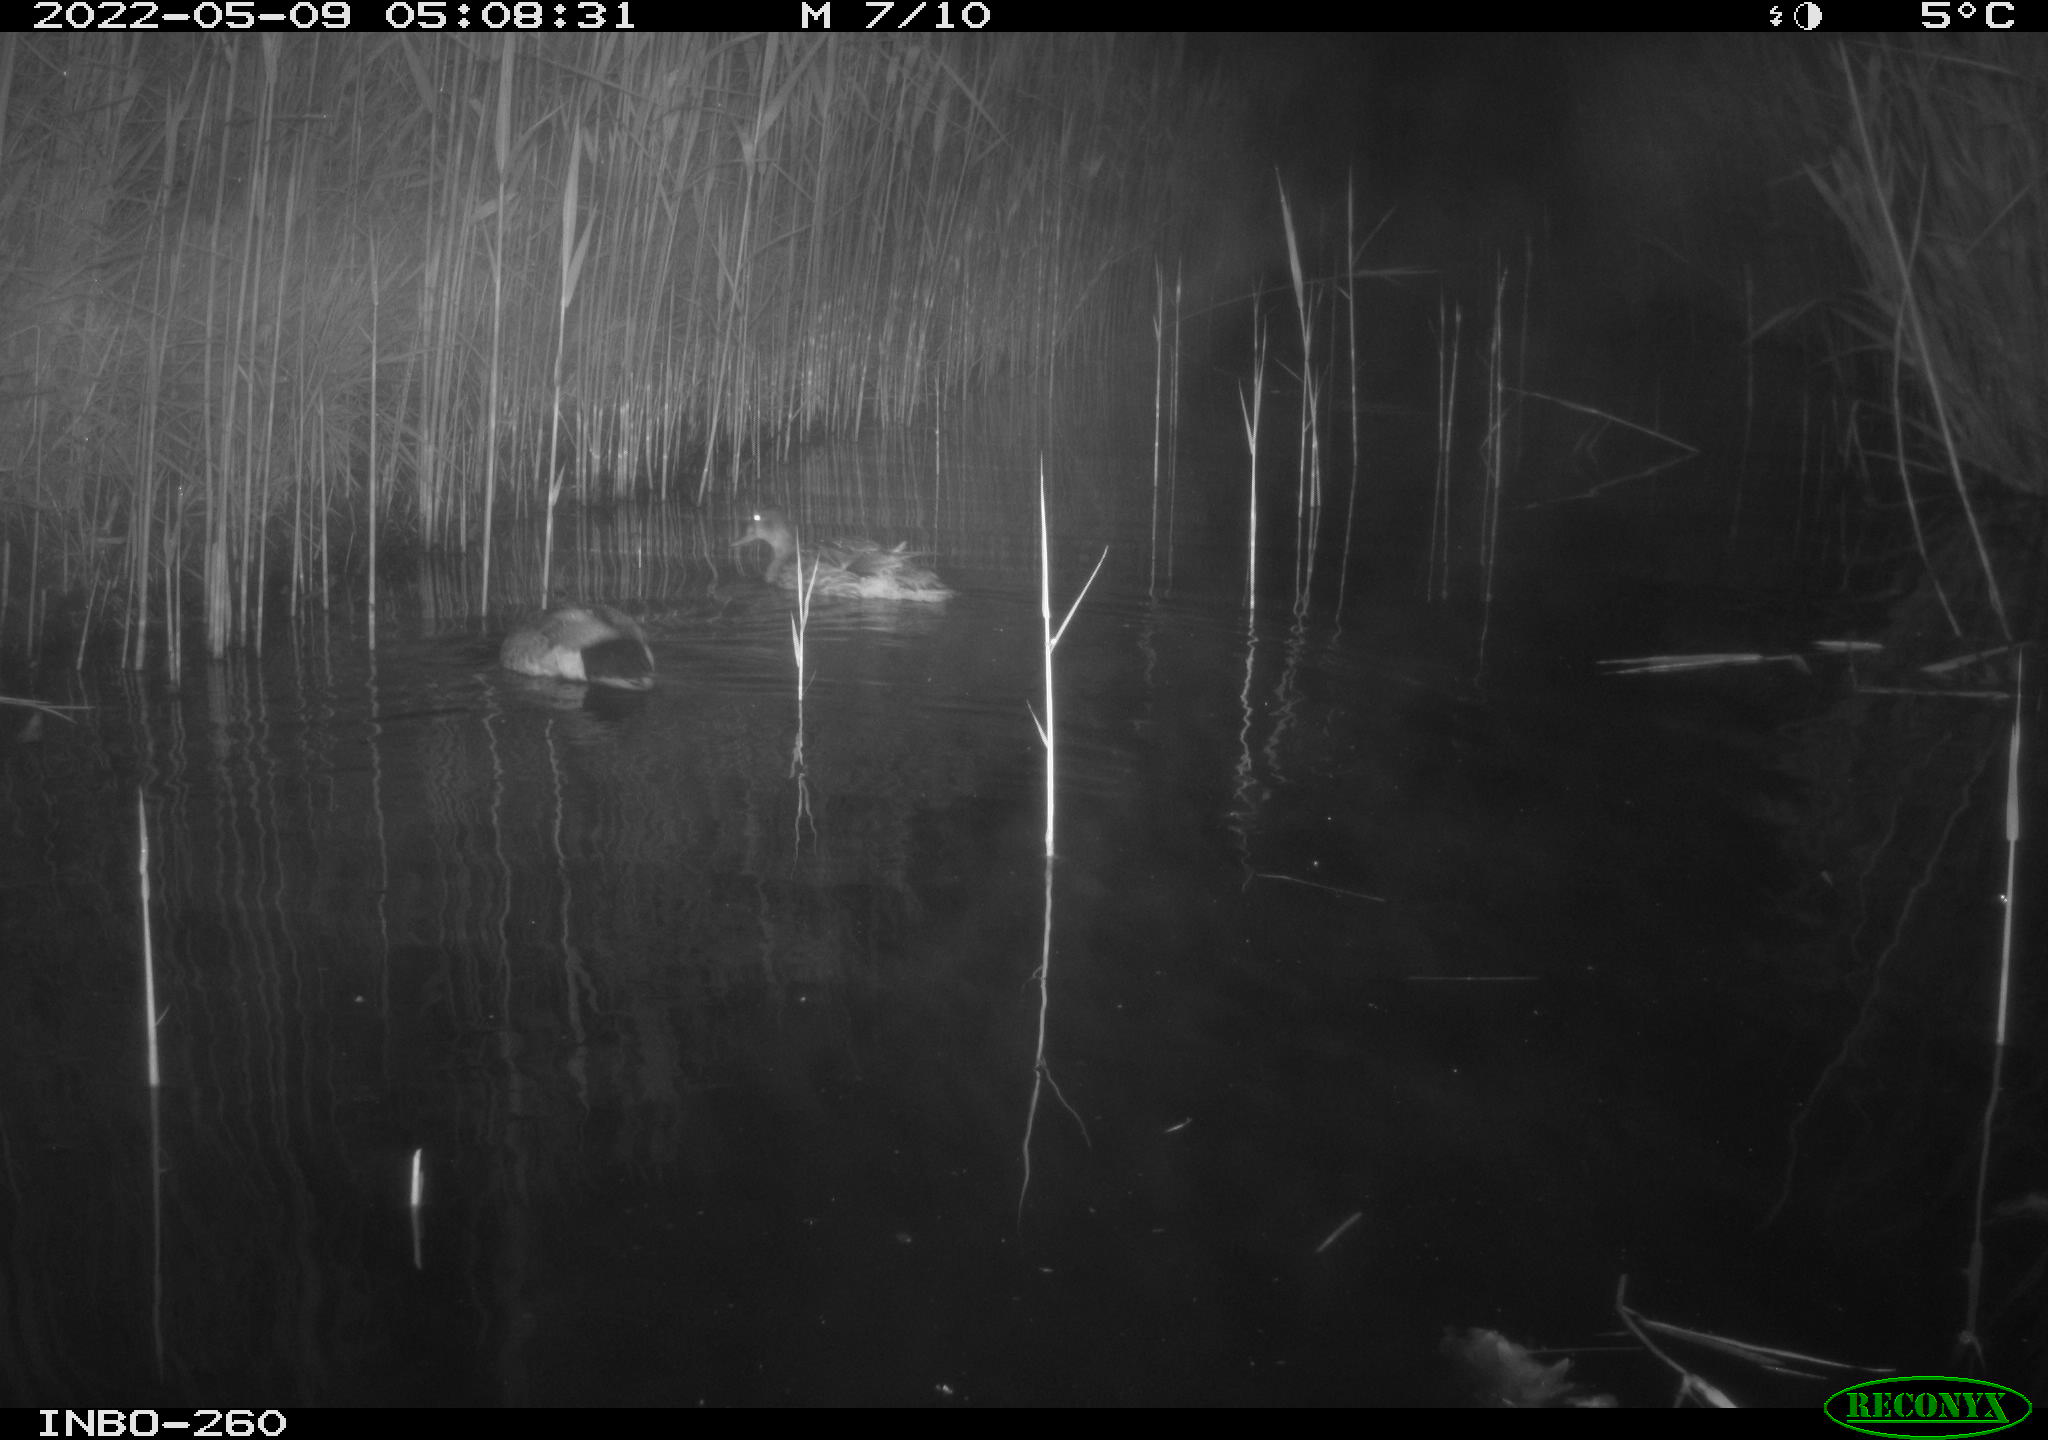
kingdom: Animalia
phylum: Chordata
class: Aves
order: Anseriformes
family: Anatidae
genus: Anas
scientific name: Anas platyrhynchos
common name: Mallard
